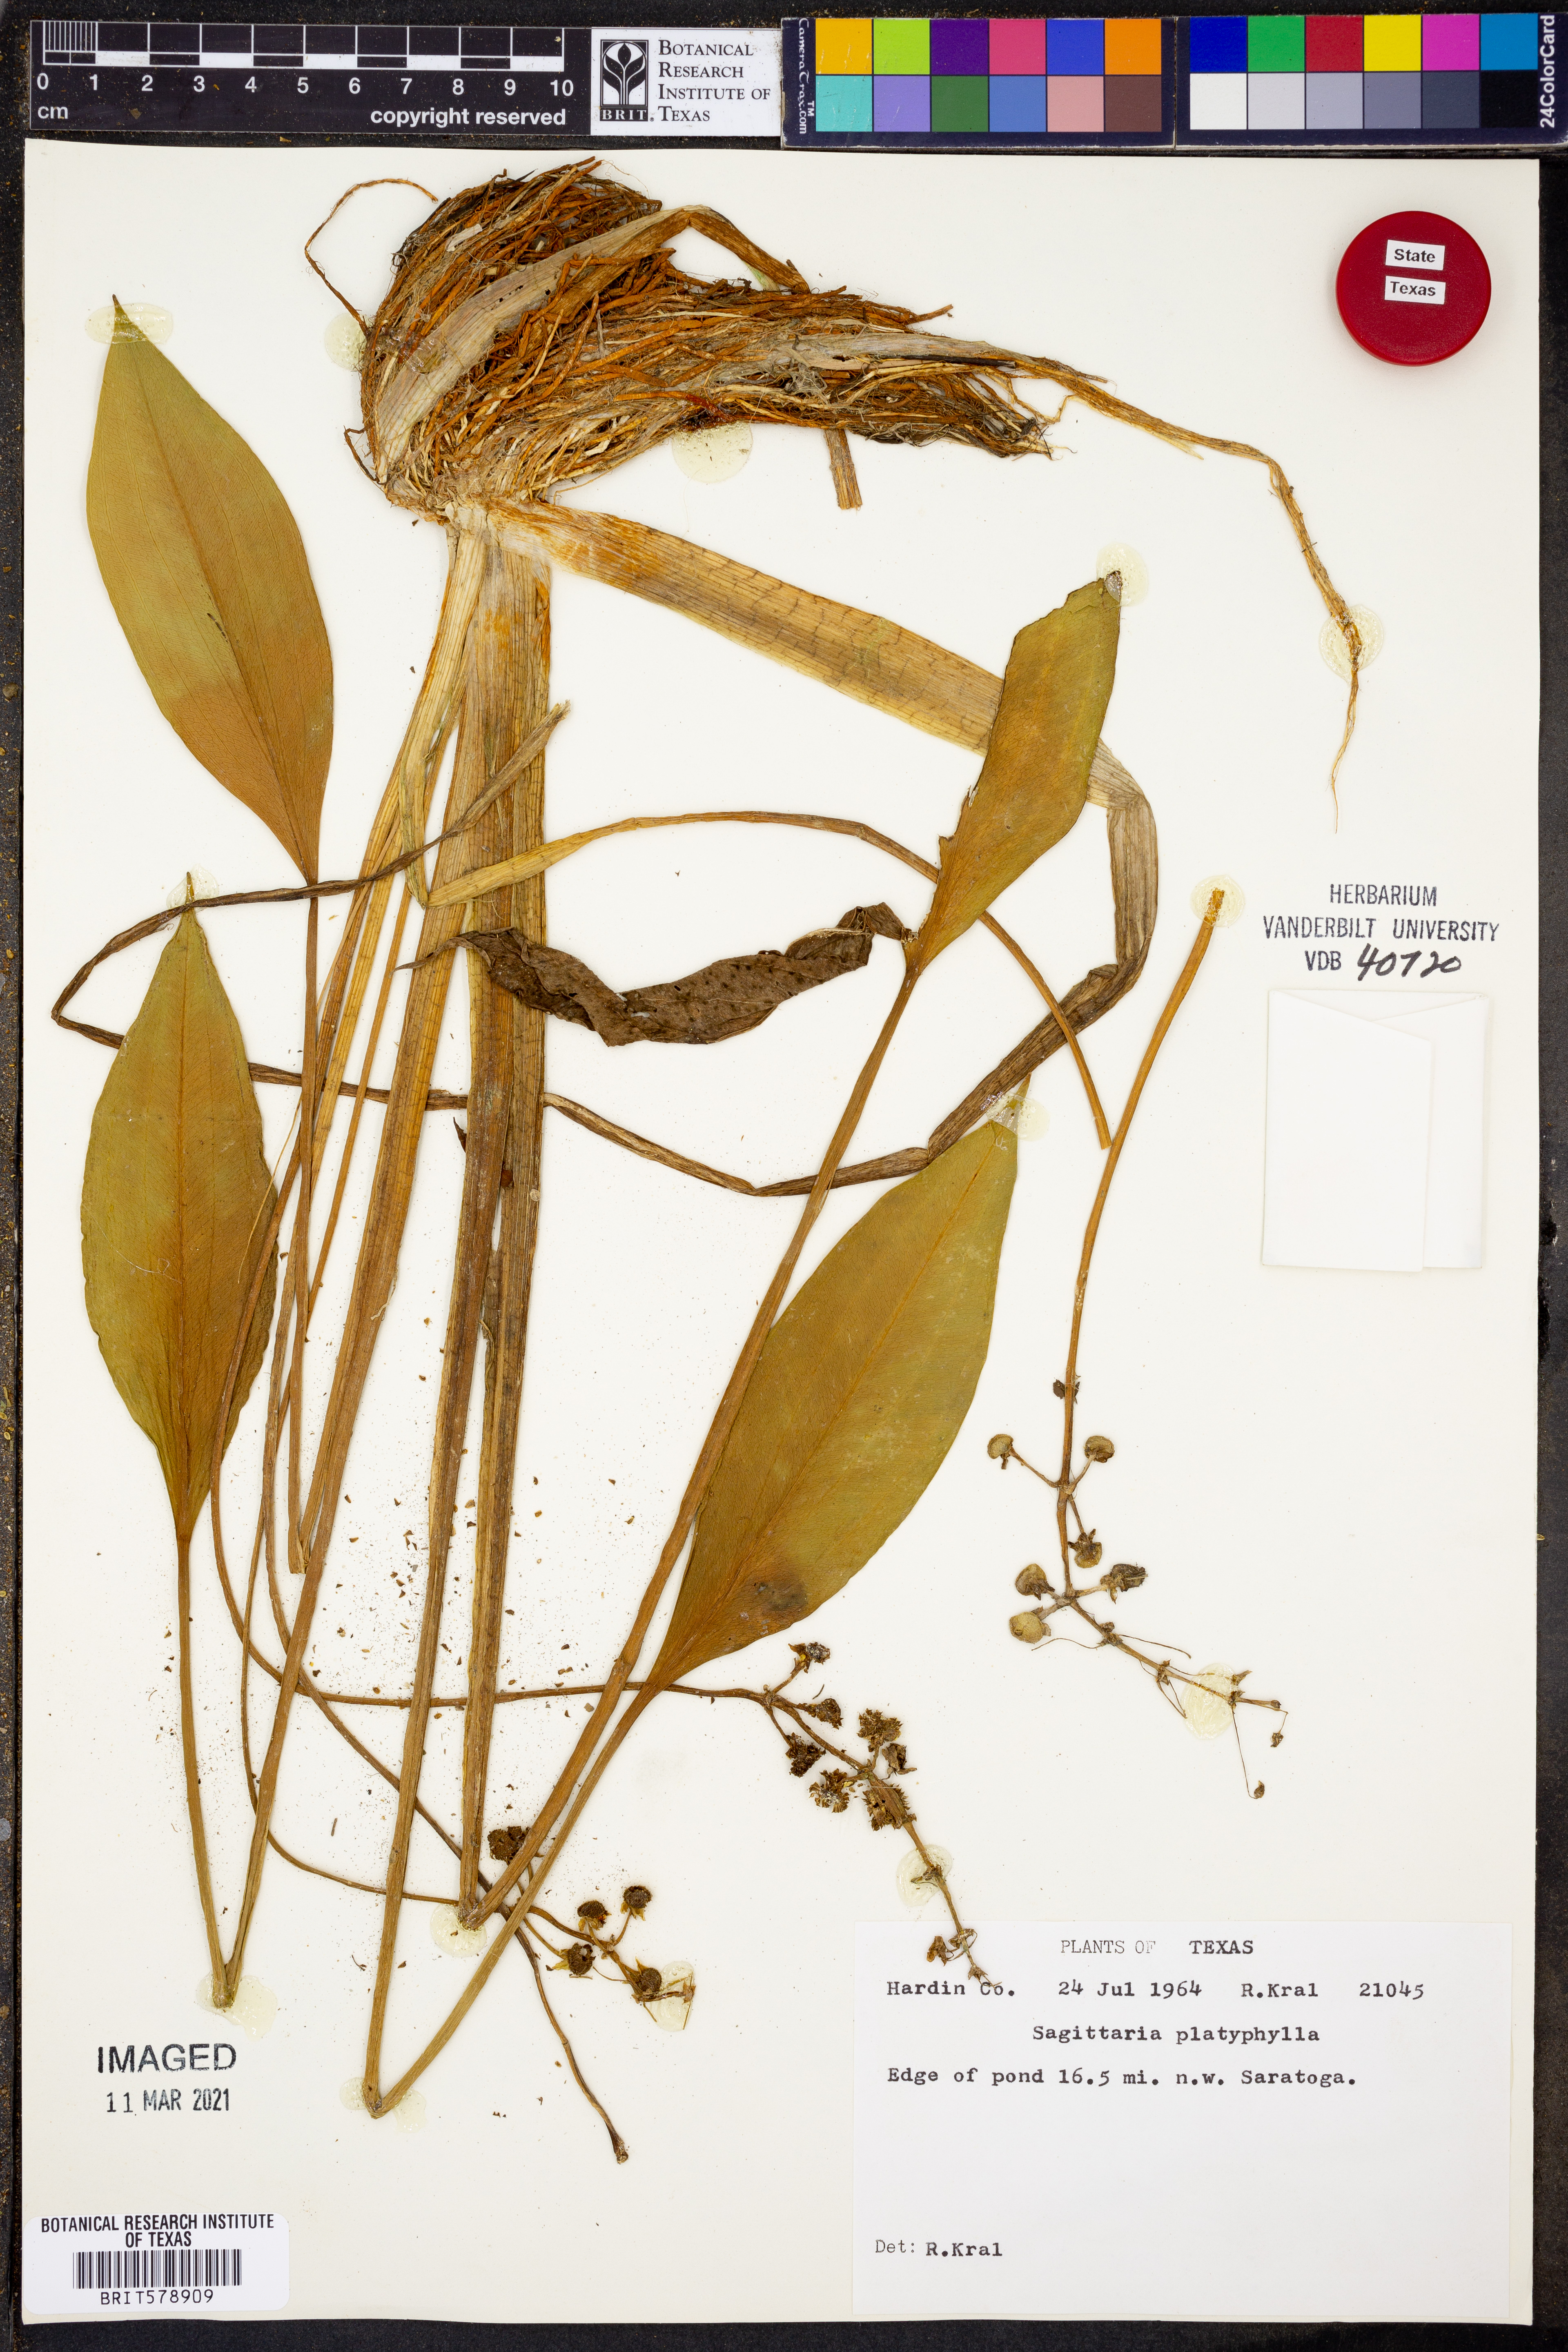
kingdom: Plantae
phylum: Tracheophyta
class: Liliopsida
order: Alismatales
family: Alismataceae
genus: Sagittaria
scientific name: Sagittaria platyphylla
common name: Broad-leaf arrowhead
